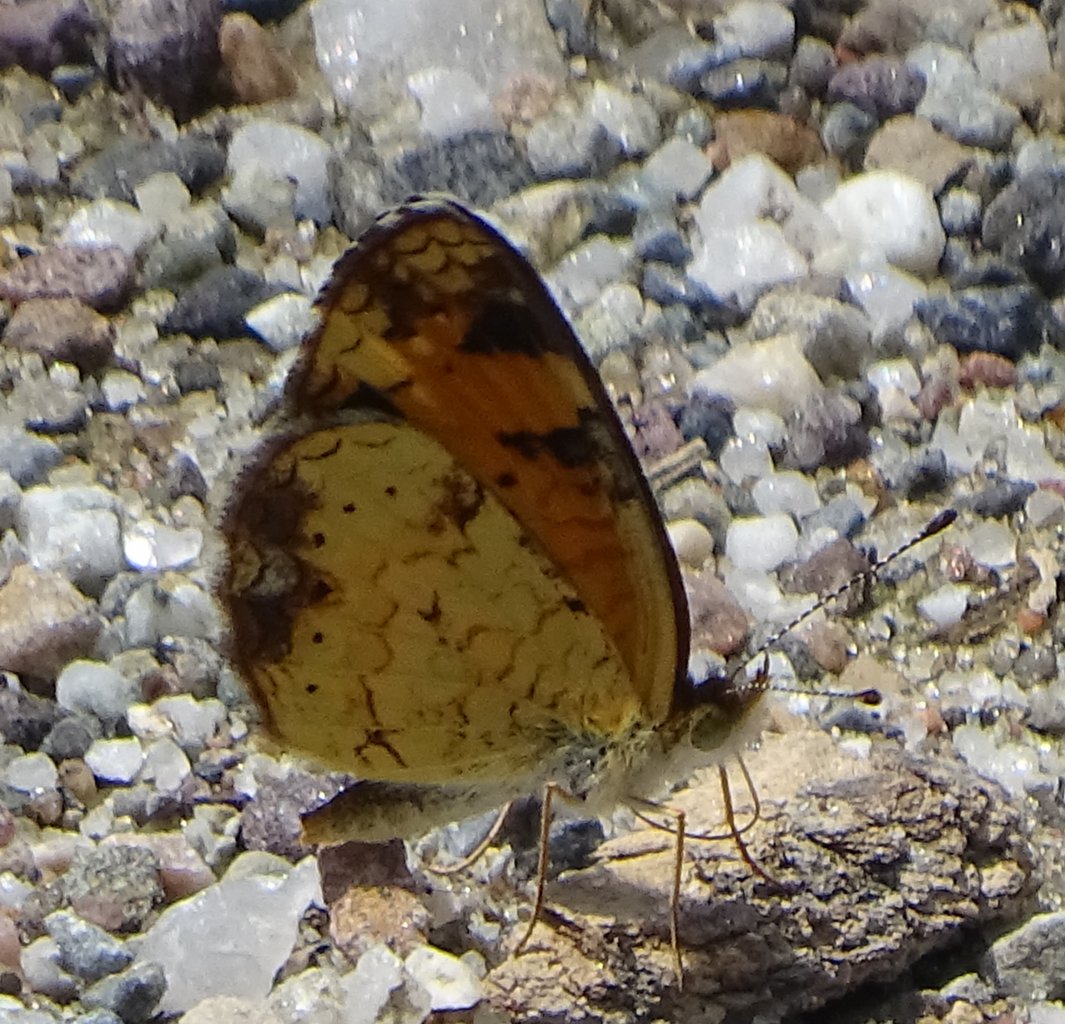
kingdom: Animalia
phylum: Arthropoda
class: Insecta
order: Lepidoptera
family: Nymphalidae
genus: Phyciodes
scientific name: Phyciodes tharos
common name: Pearl Crescent
